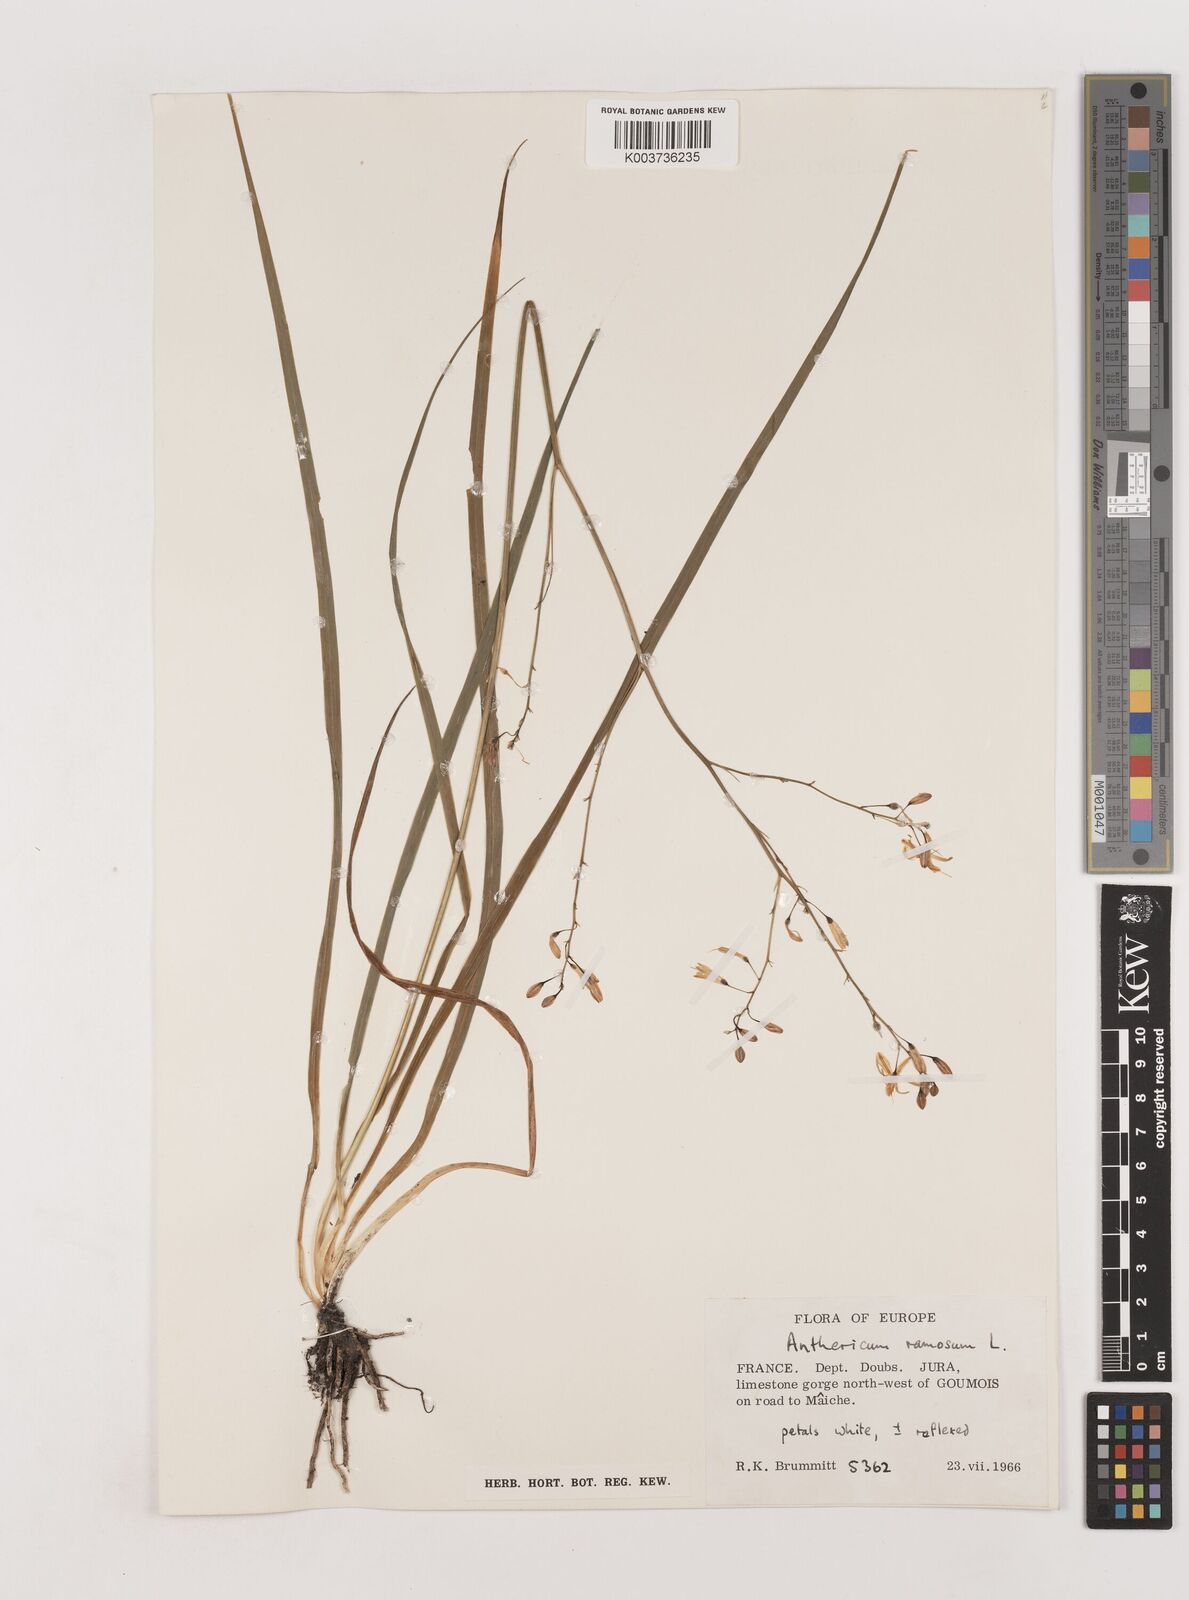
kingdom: Plantae
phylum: Tracheophyta
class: Liliopsida
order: Asparagales
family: Asparagaceae
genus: Anthericum
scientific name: Anthericum ramosum
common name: Branched st. bernard's-lily
